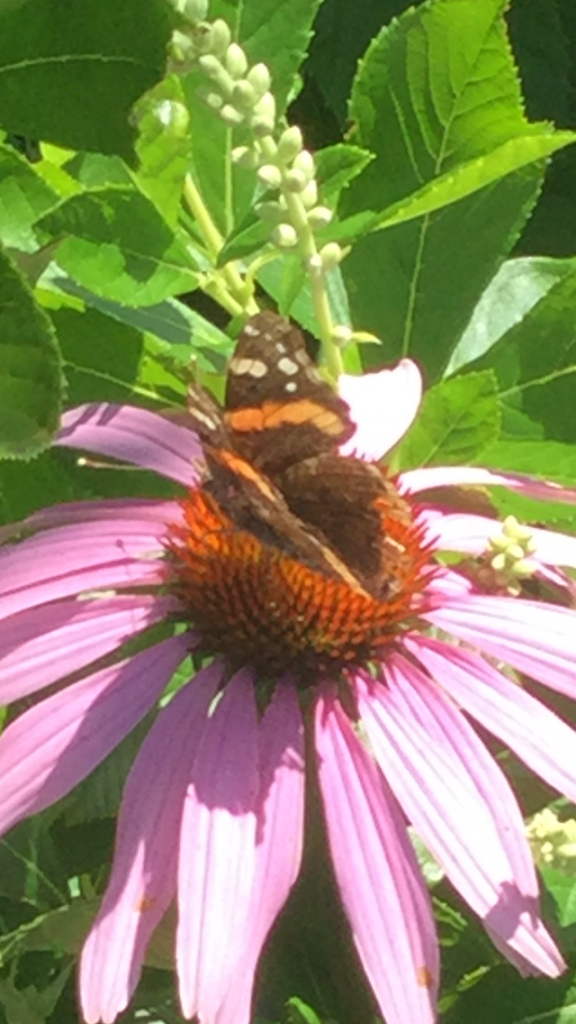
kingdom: Animalia
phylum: Arthropoda
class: Insecta
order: Lepidoptera
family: Nymphalidae
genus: Vanessa
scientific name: Vanessa atalanta
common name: Red Admiral
